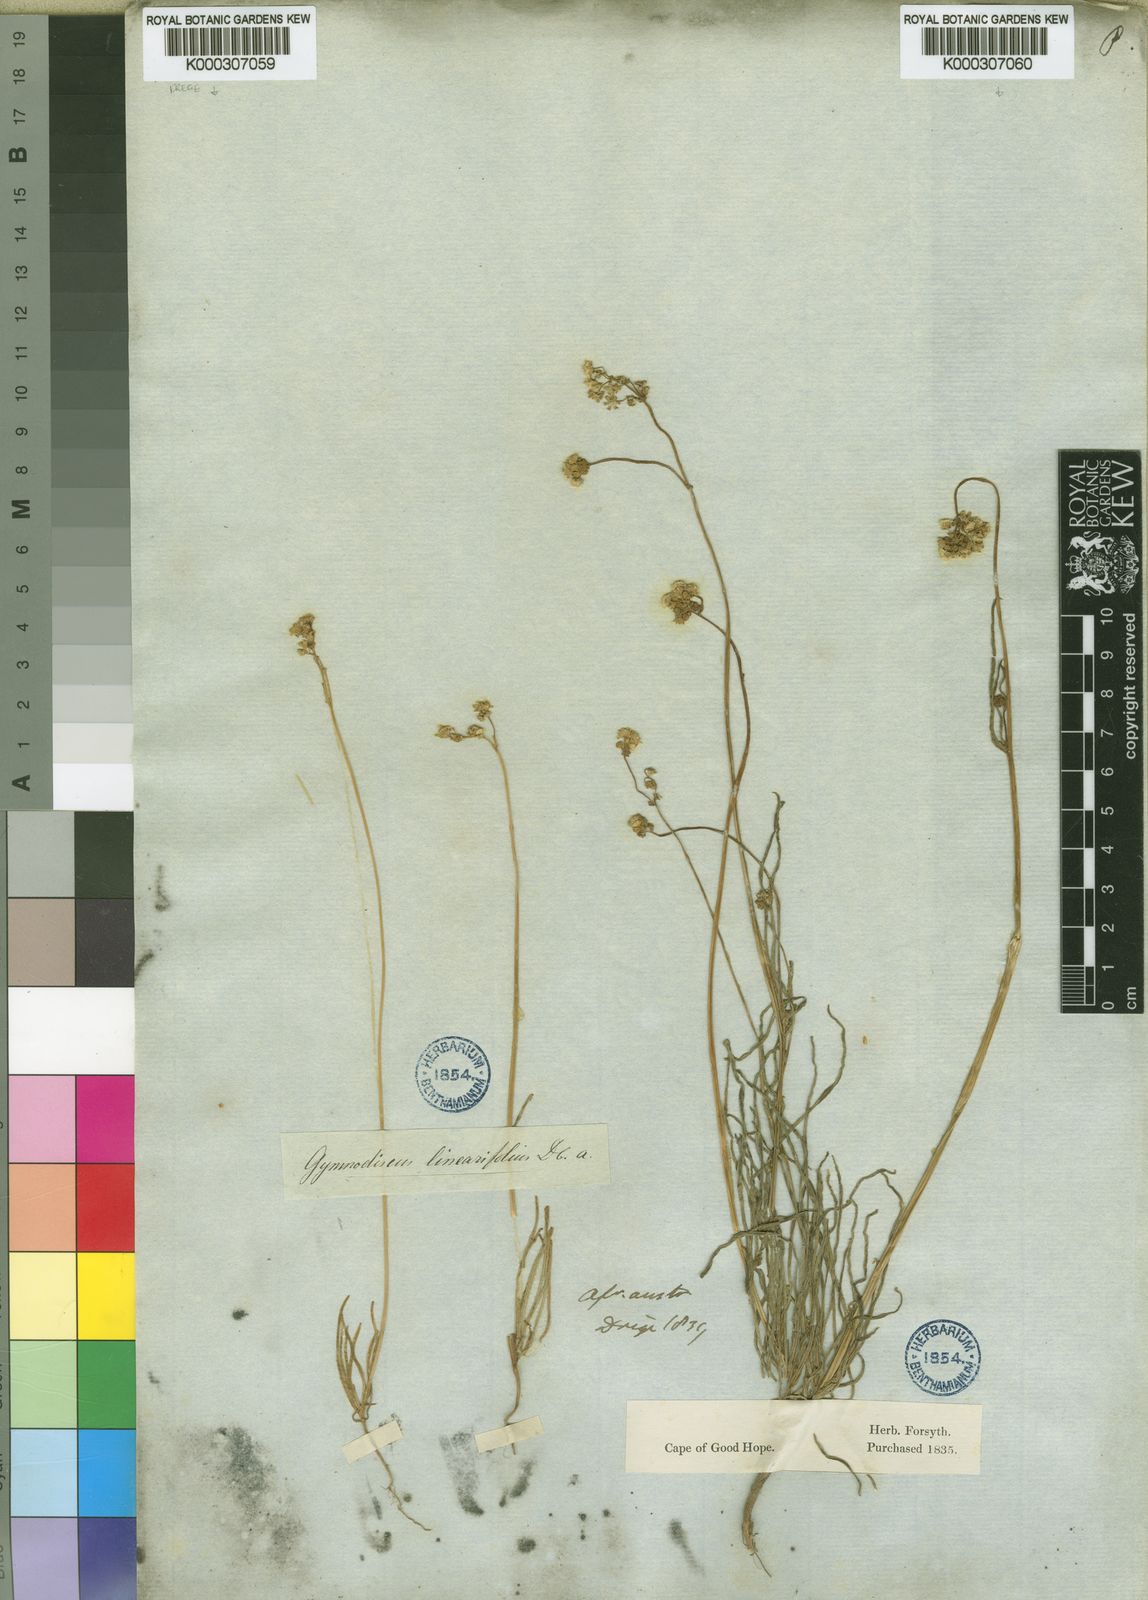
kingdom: Plantae
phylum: Tracheophyta
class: Magnoliopsida
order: Asterales
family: Asteraceae
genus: Gymnodiscus
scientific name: Gymnodiscus linearifolius
